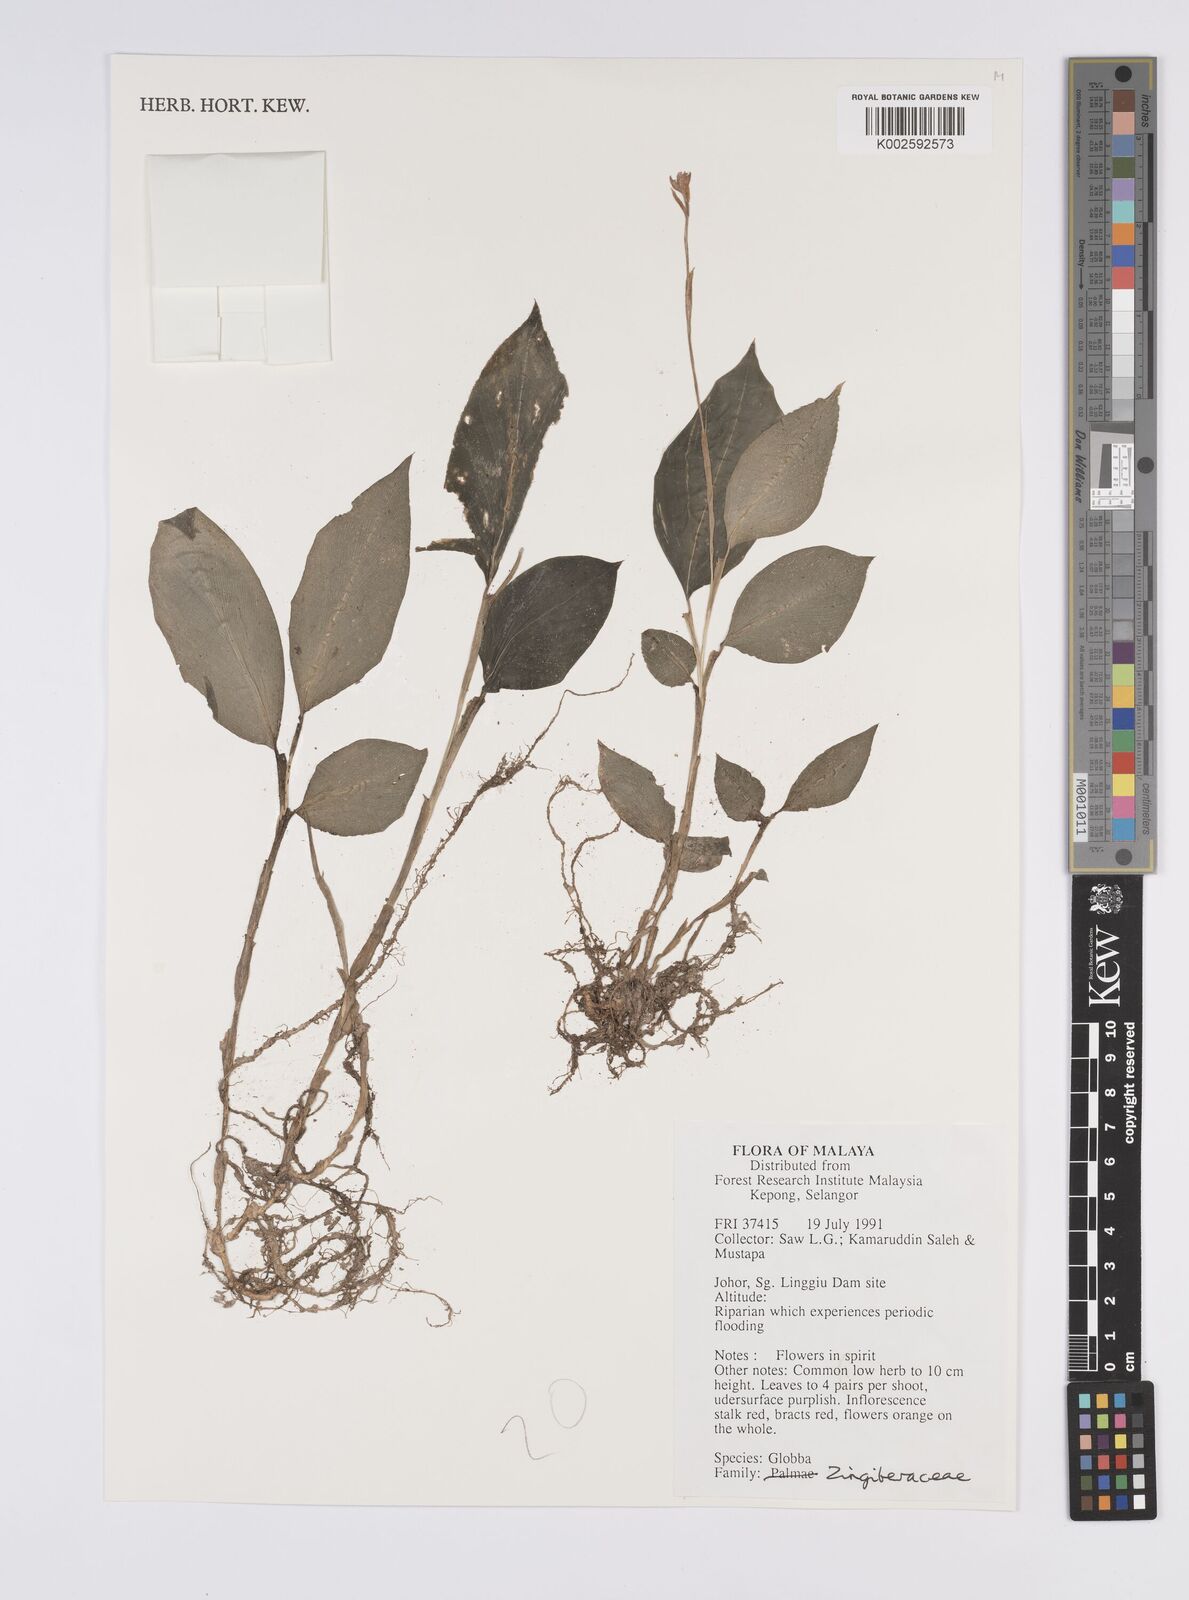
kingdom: Plantae
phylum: Tracheophyta
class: Liliopsida
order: Zingiberales
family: Zingiberaceae
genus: Globba
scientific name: Globba
